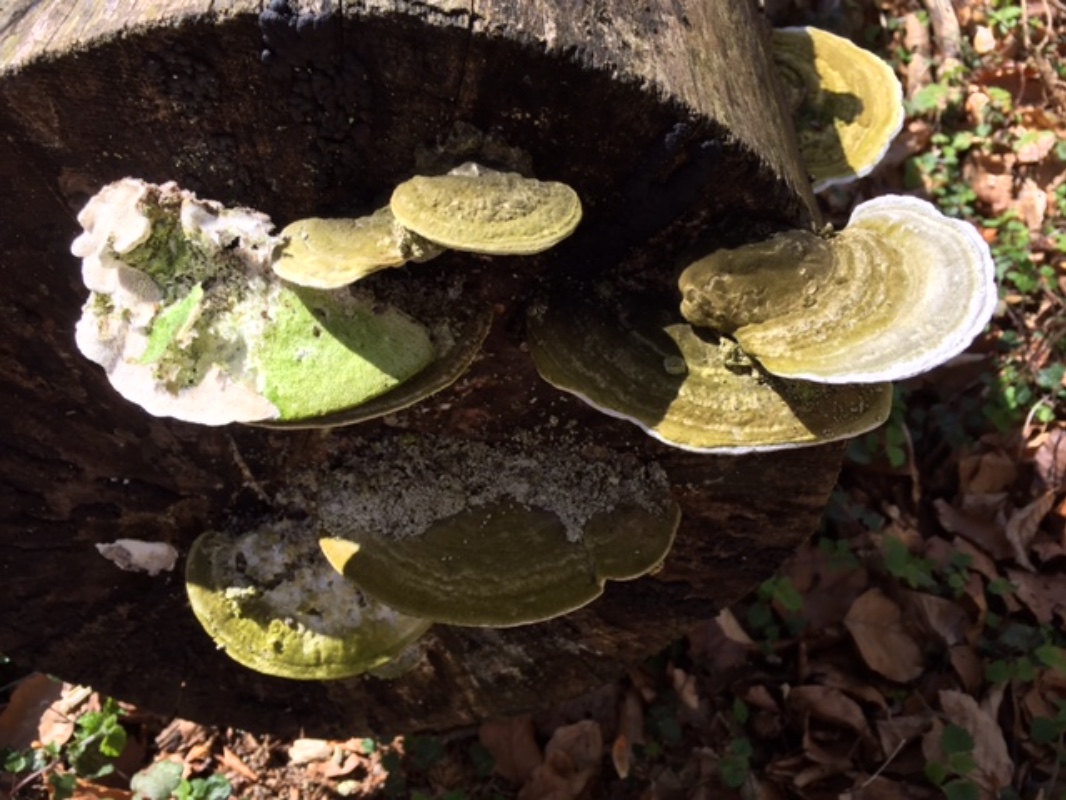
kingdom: Fungi
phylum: Basidiomycota
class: Agaricomycetes
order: Polyporales
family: Polyporaceae
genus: Trametes
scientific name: Trametes gibbosa
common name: puklet læderporesvamp
